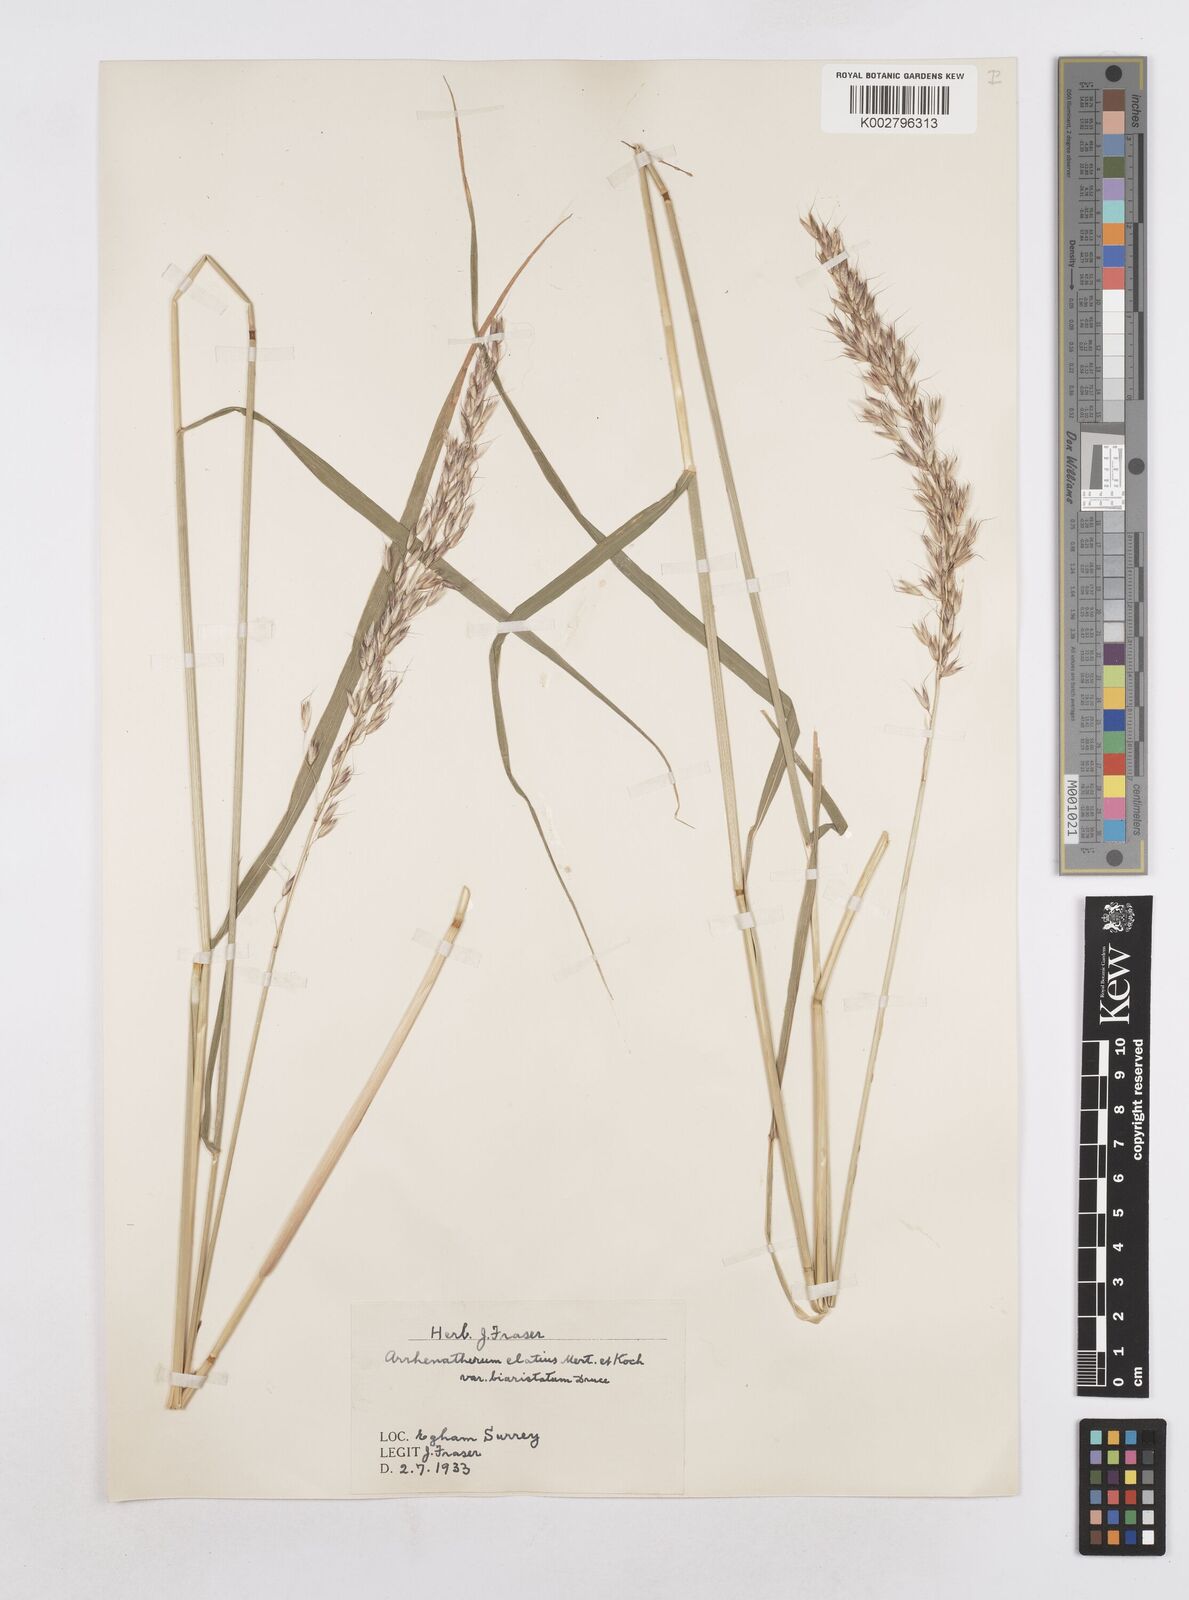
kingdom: Plantae
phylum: Tracheophyta
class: Liliopsida
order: Poales
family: Poaceae
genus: Arrhenatherum
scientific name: Arrhenatherum elatius
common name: Tall oatgrass
